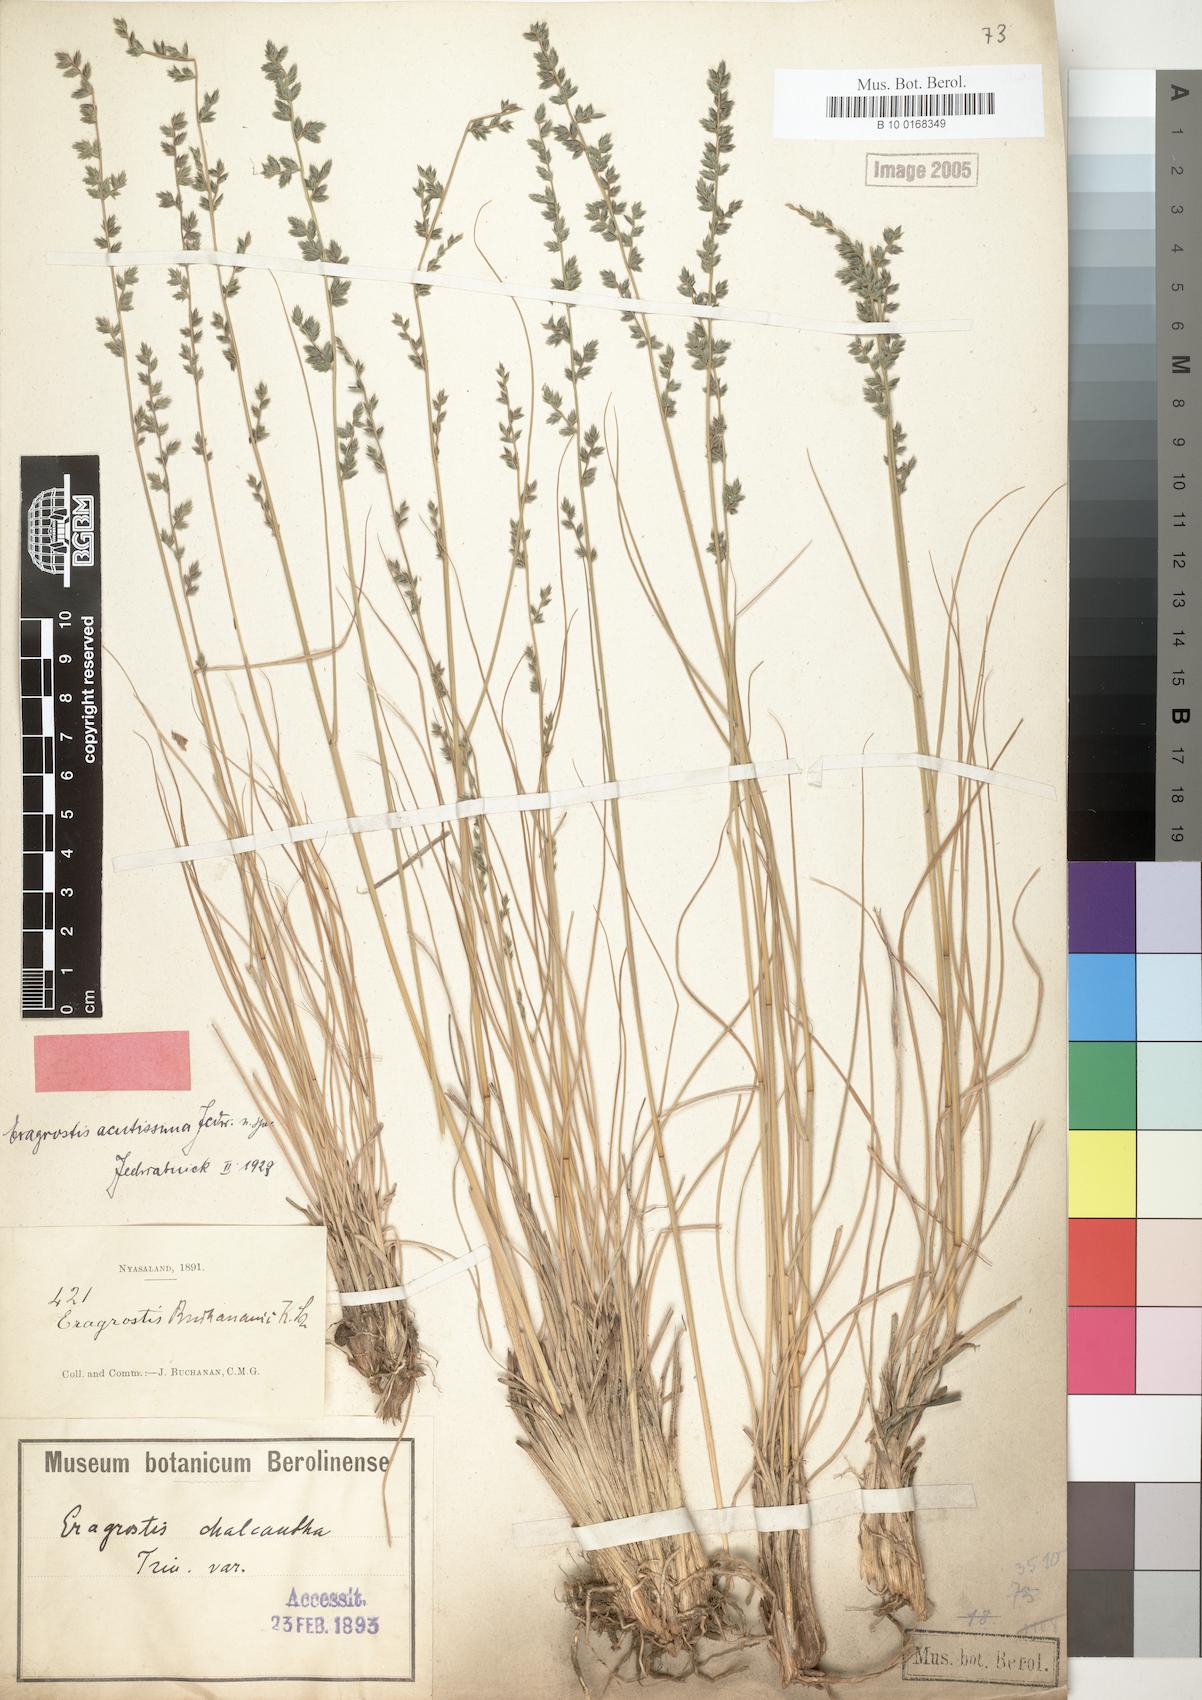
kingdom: Plantae
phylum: Tracheophyta
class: Liliopsida
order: Poales
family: Poaceae
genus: Eragrostis
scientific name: Eragrostis nindensis
